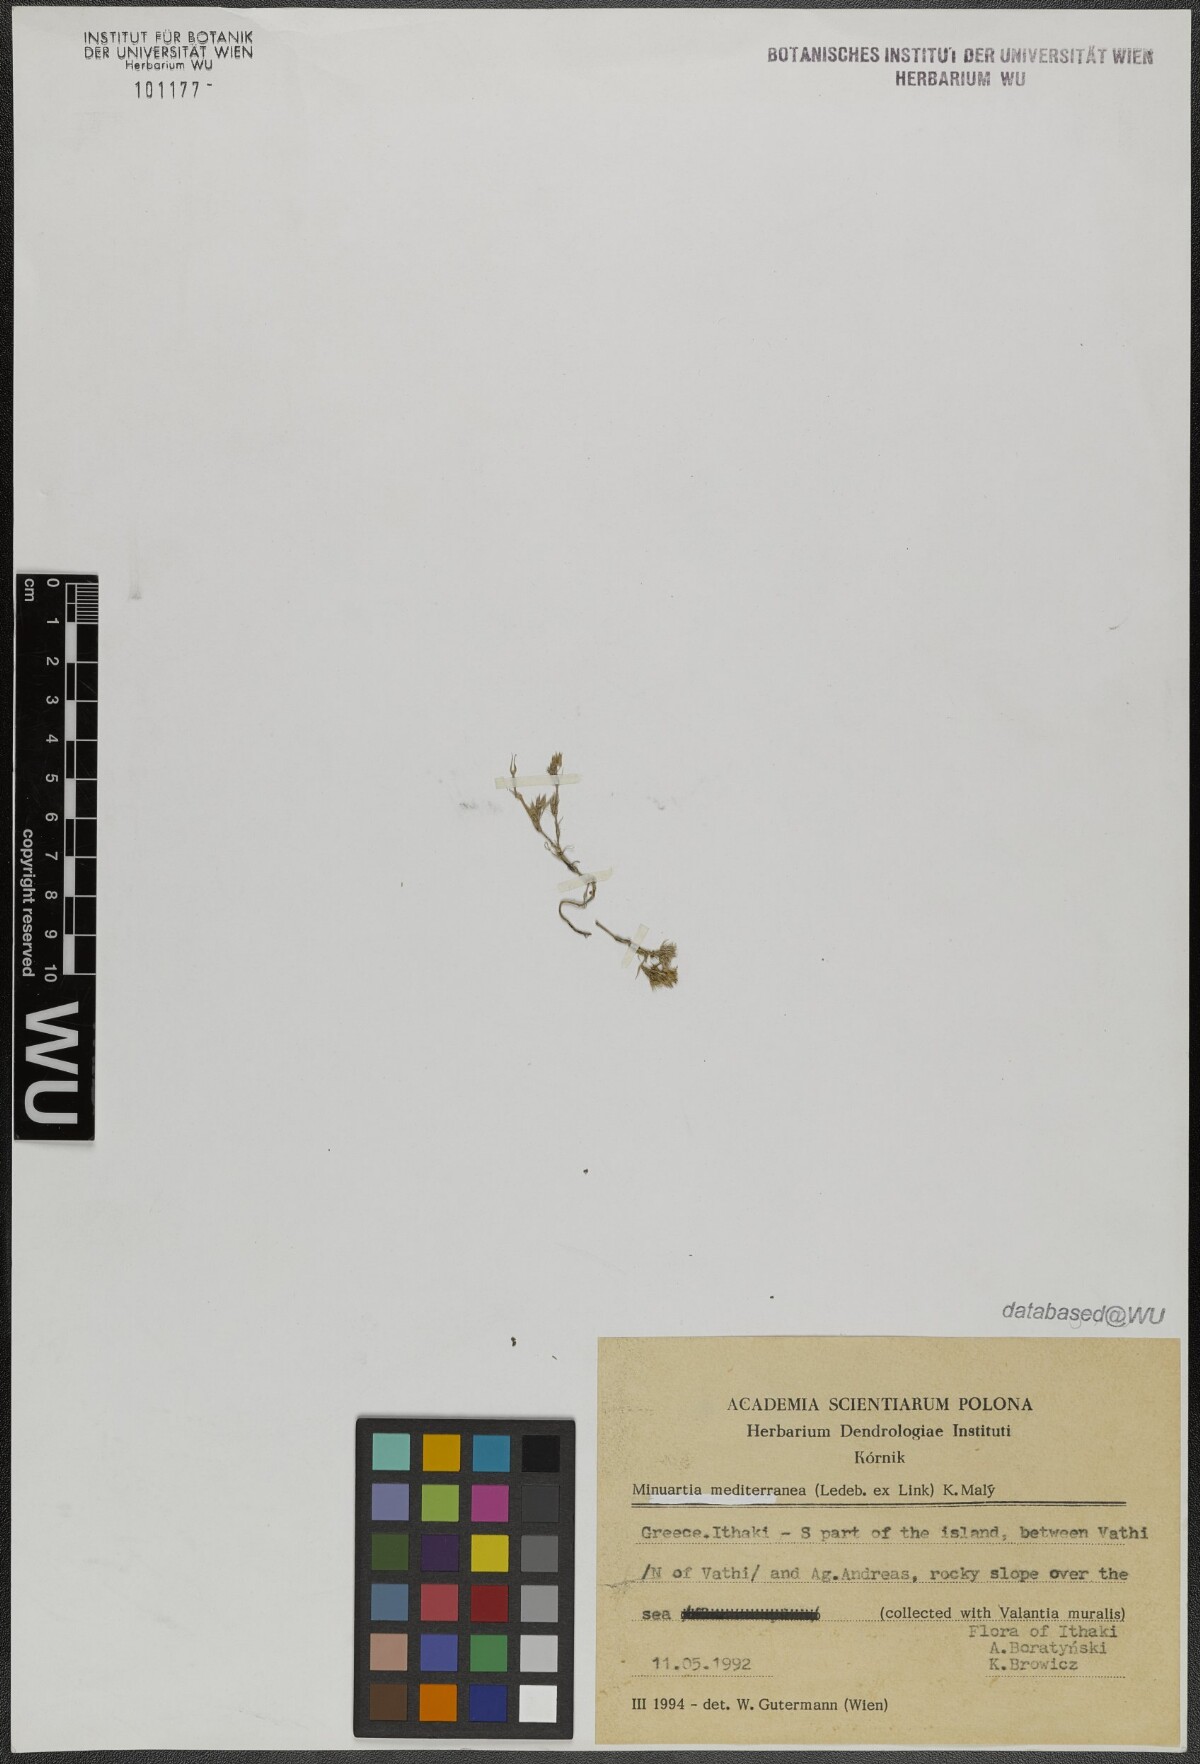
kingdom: Plantae
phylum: Tracheophyta
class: Magnoliopsida
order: Caryophyllales
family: Caryophyllaceae
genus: Sabulina
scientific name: Sabulina mediterranea
